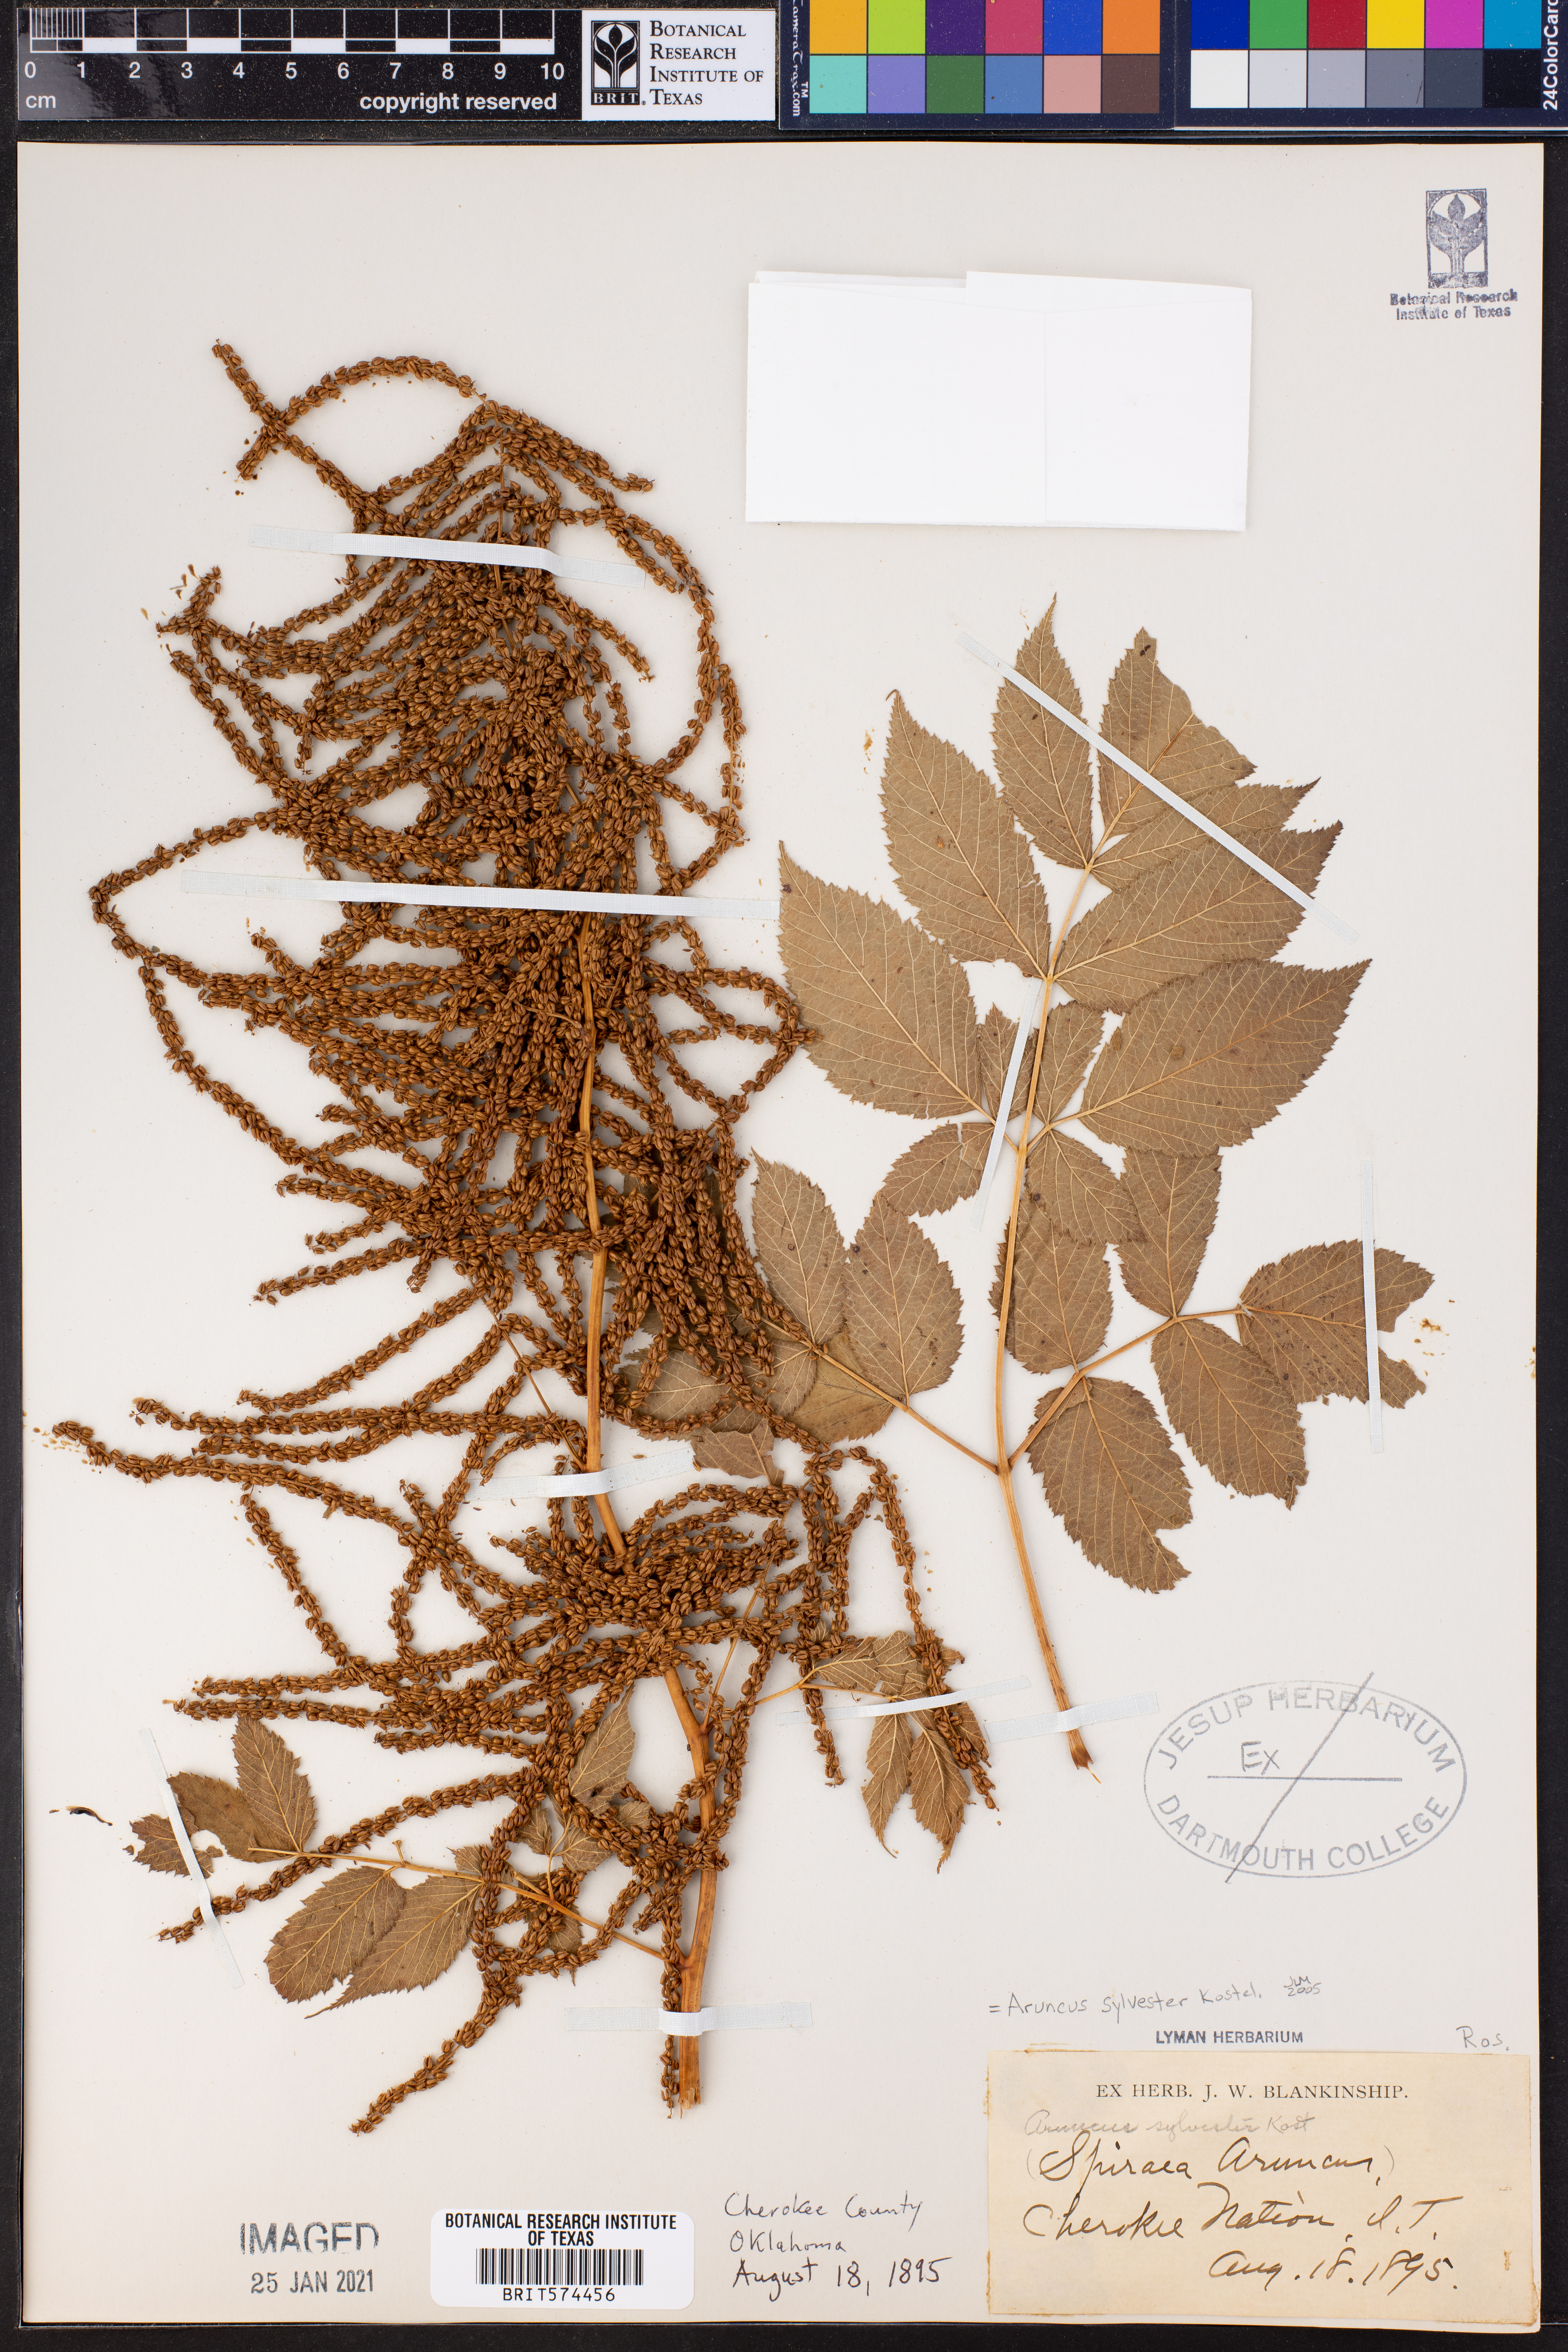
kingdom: Plantae
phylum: Tracheophyta
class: Magnoliopsida
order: Rosales
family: Rosaceae
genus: Aruncus
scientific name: Aruncus sylvester
